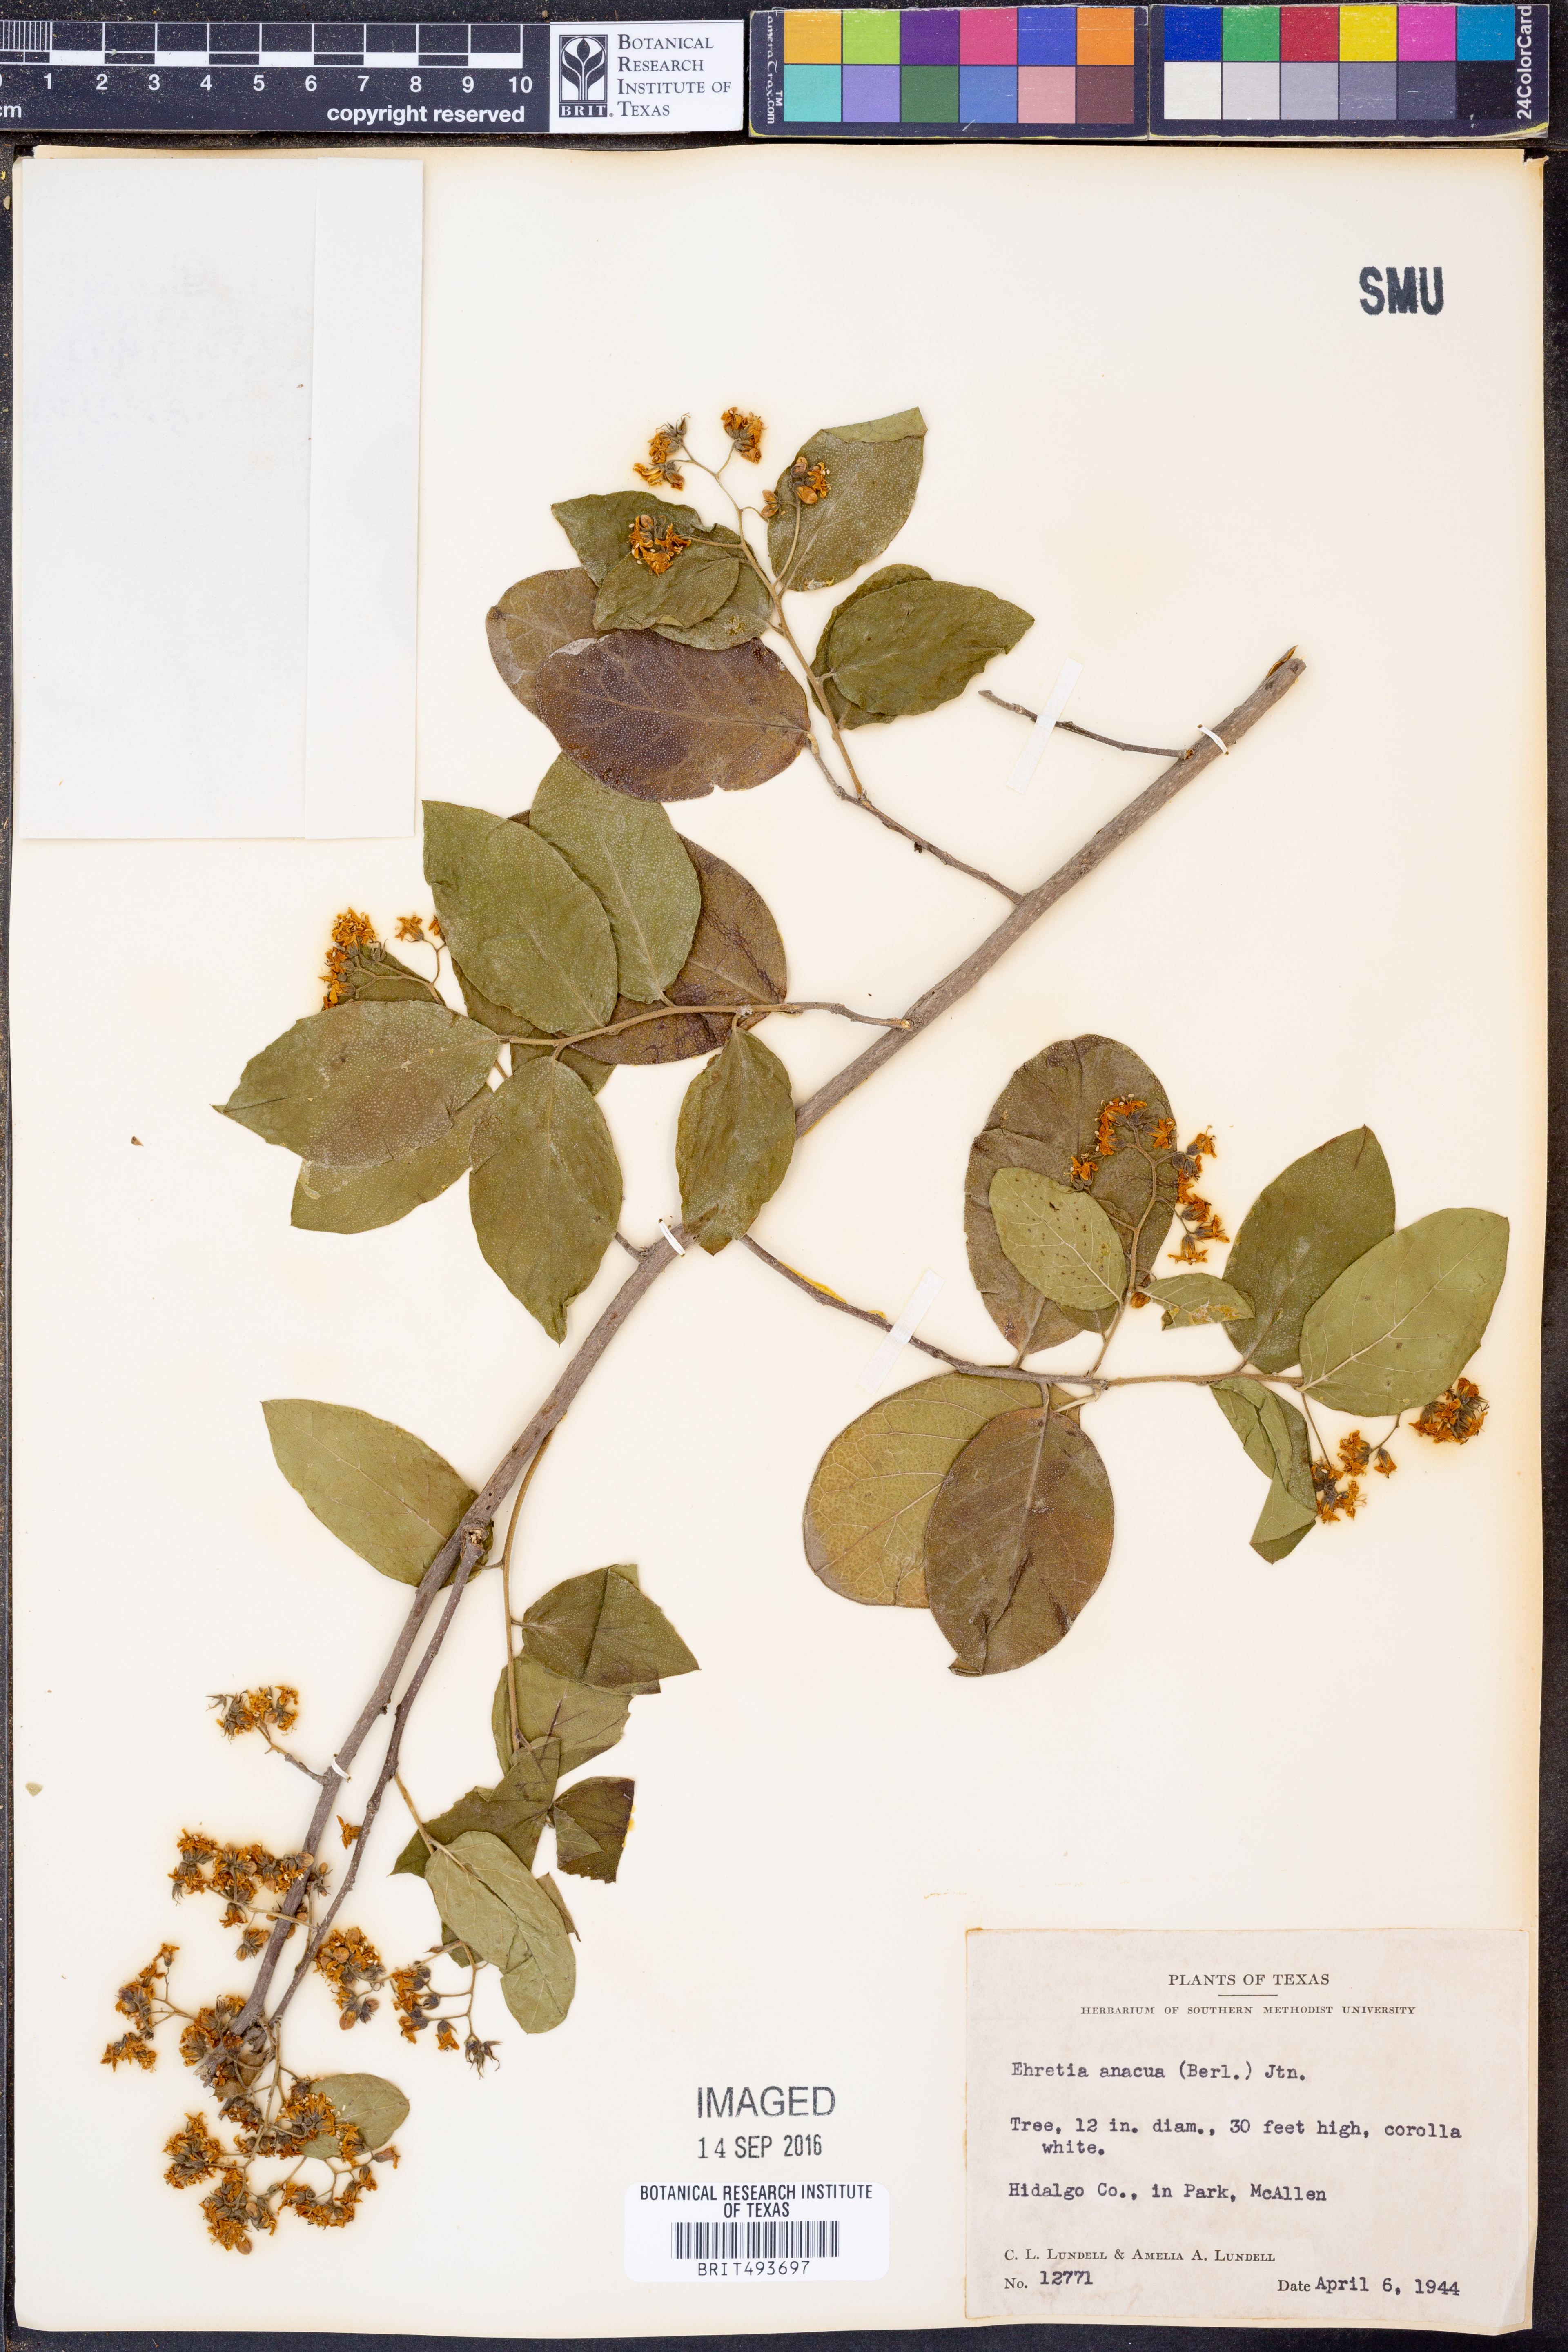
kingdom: Plantae
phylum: Tracheophyta
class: Magnoliopsida
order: Boraginales
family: Ehretiaceae
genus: Ehretia
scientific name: Ehretia anacua
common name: Sugarberry
